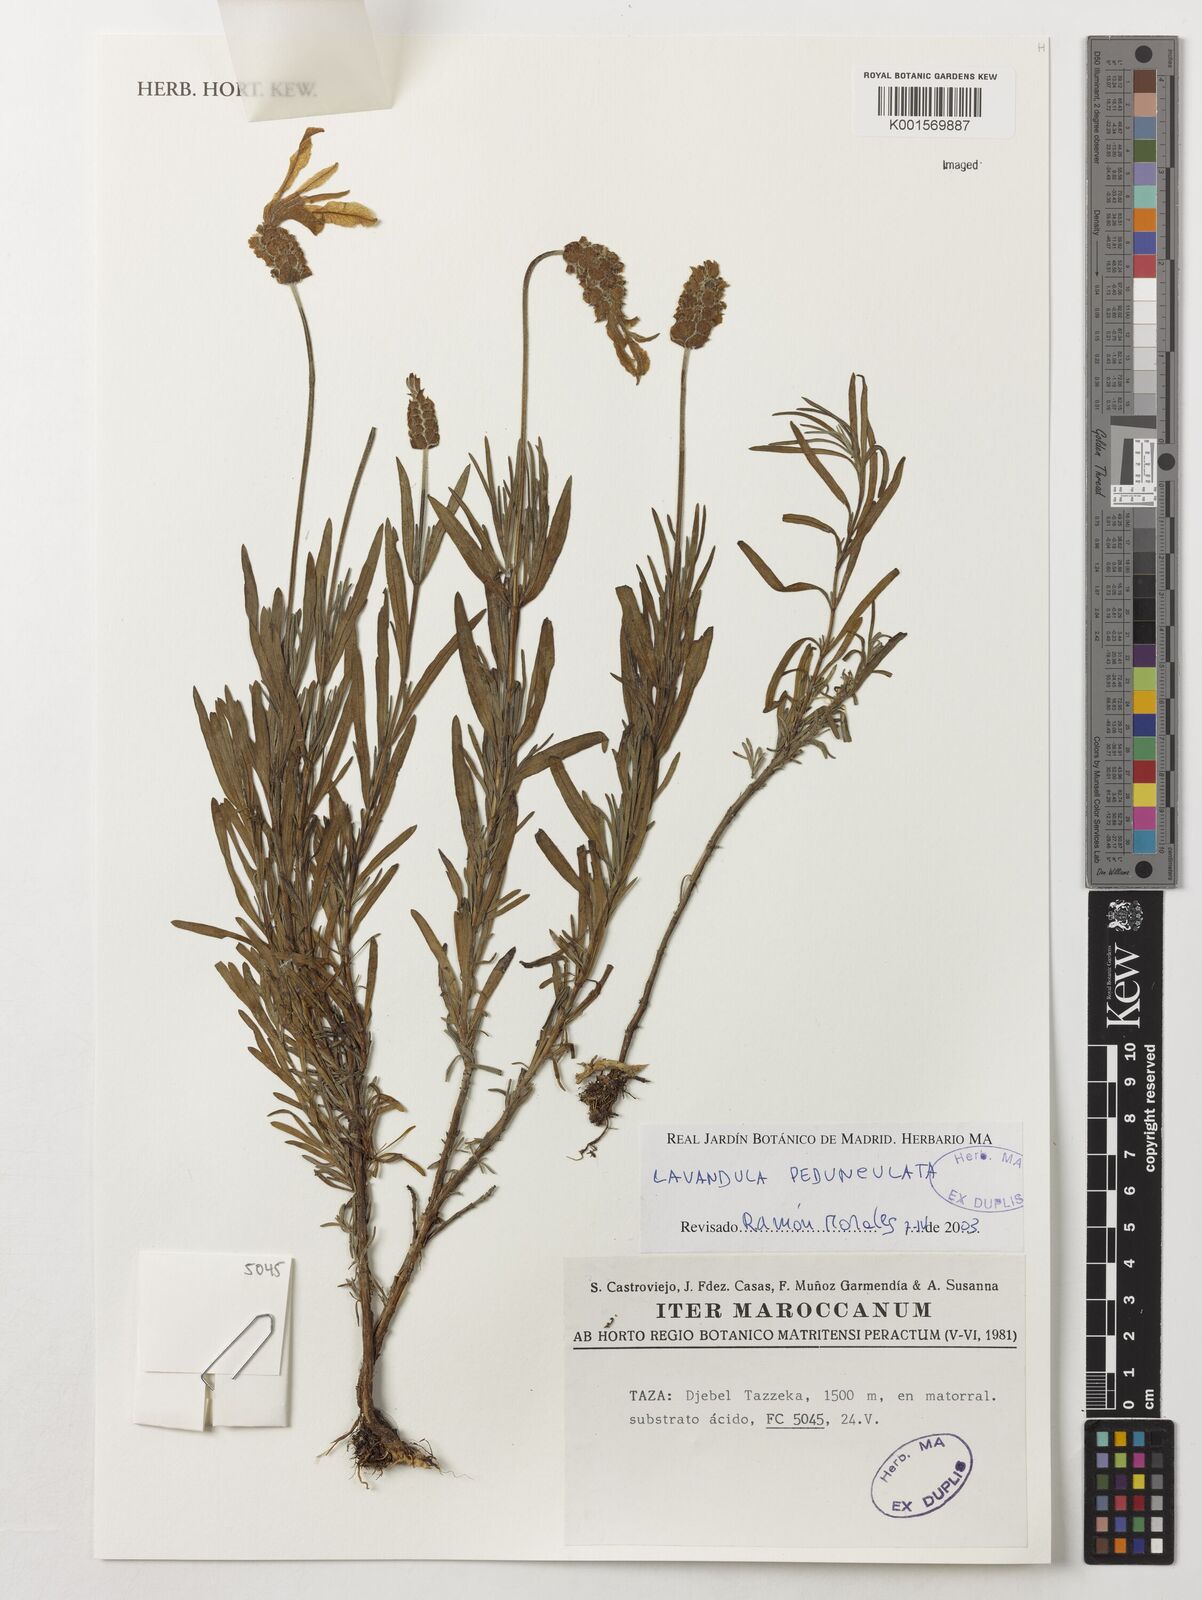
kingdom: Plantae
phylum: Tracheophyta
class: Magnoliopsida
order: Lamiales
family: Lamiaceae
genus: Lavandula
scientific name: Lavandula pedunculata
